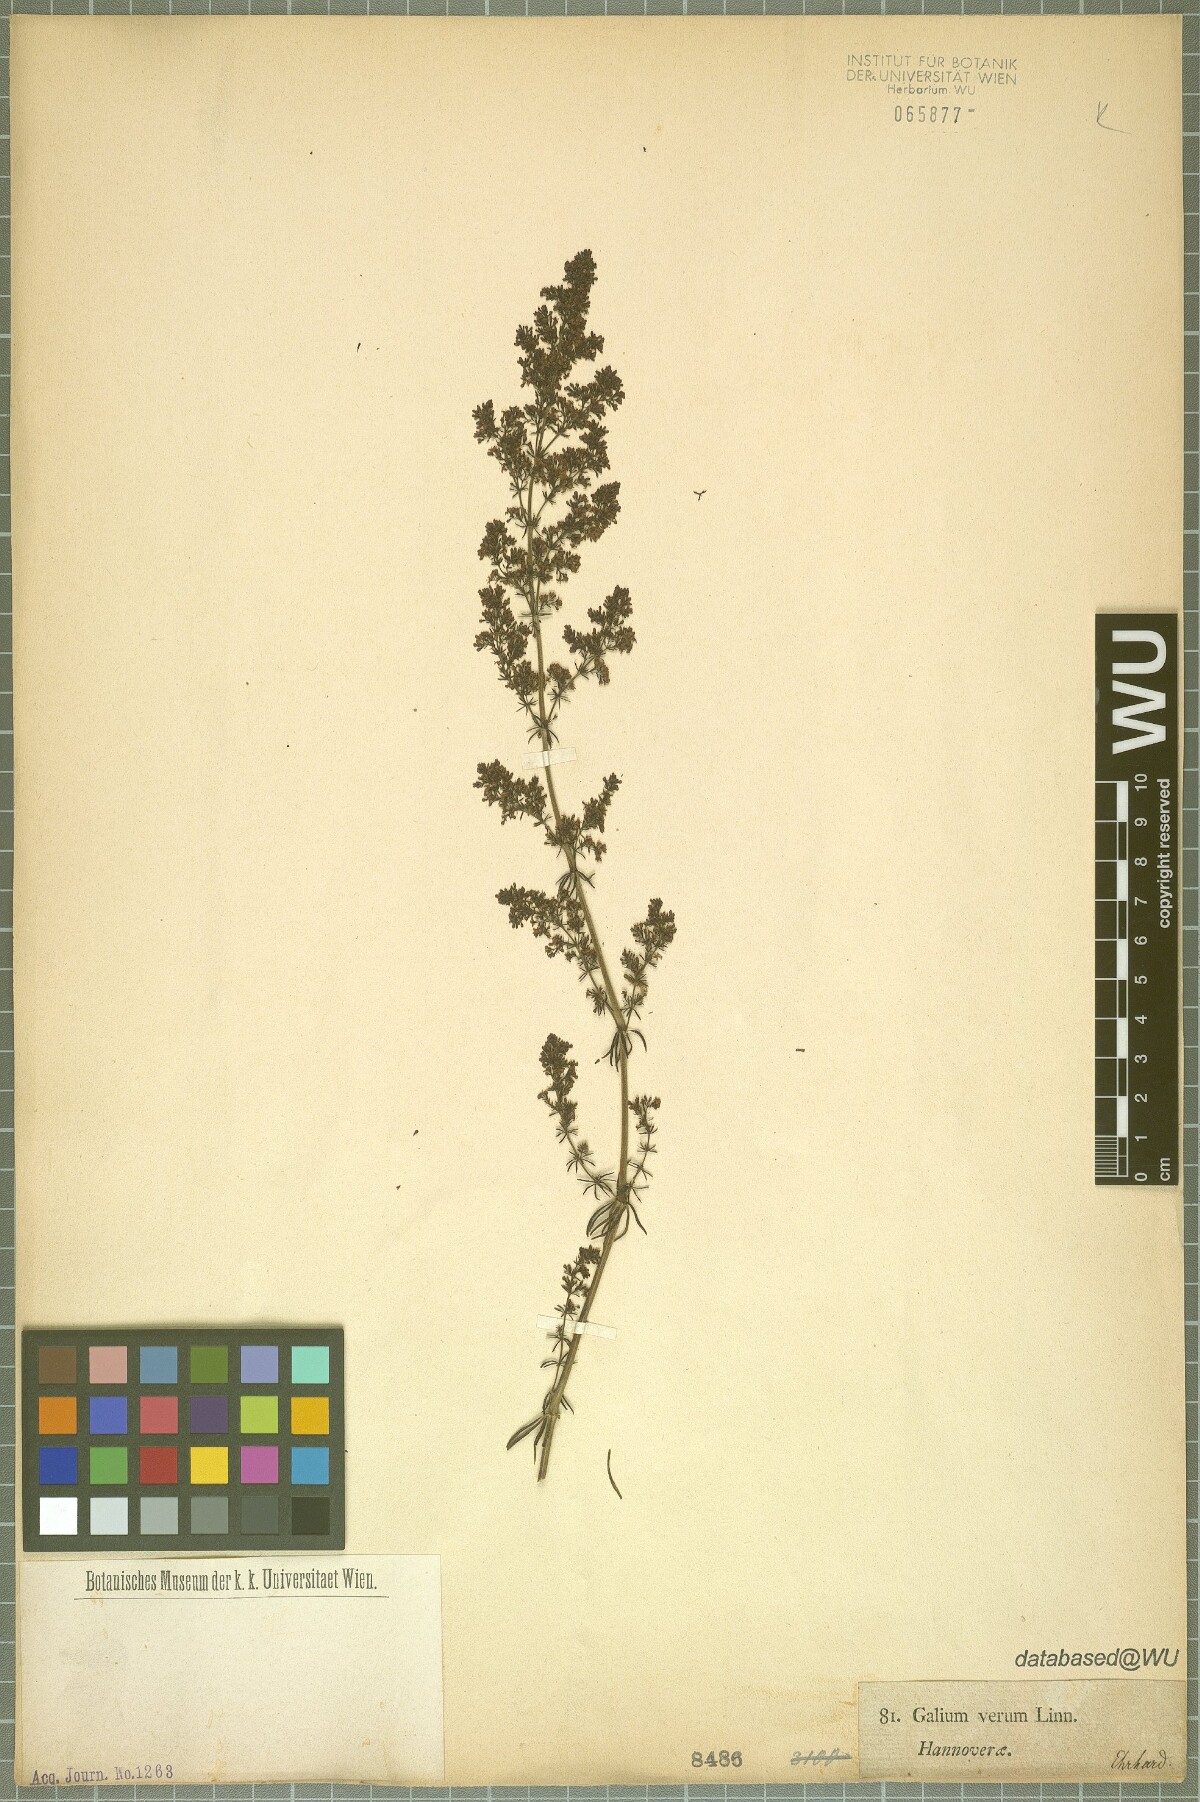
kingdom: Plantae
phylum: Tracheophyta
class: Magnoliopsida
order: Gentianales
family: Rubiaceae
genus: Galium
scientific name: Galium verum
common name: Lady's bedstraw
